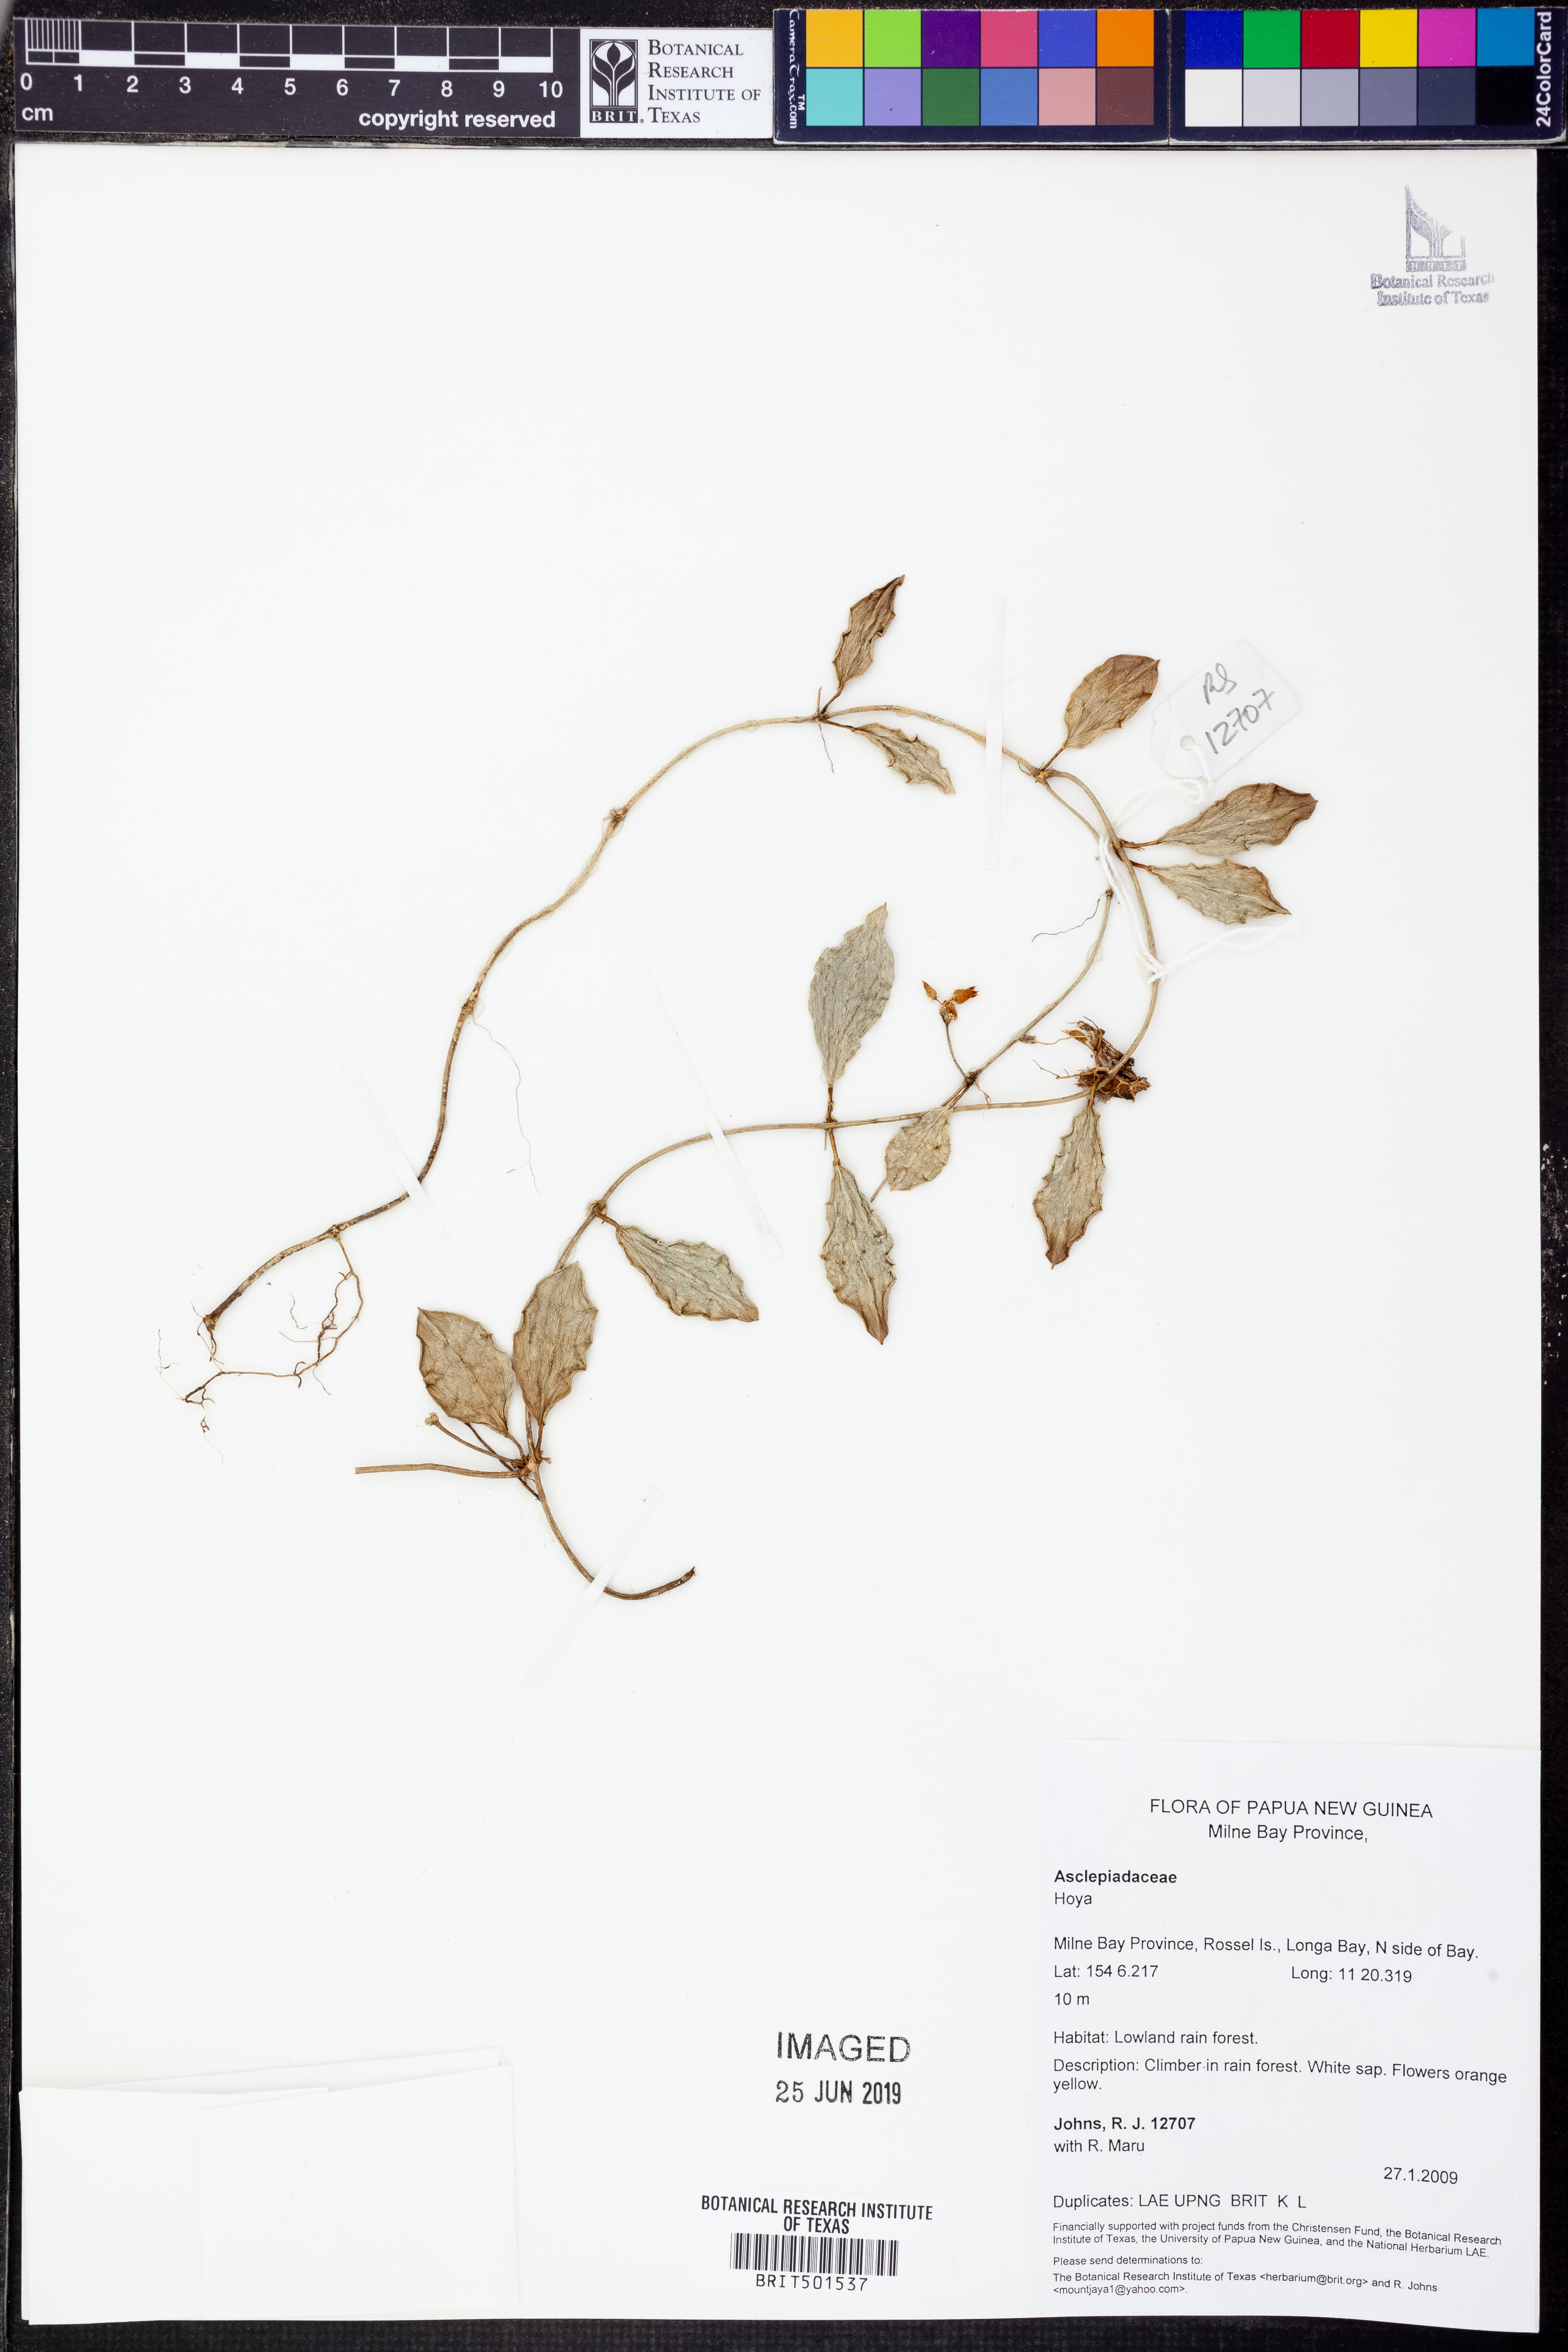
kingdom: Plantae
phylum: Tracheophyta
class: Magnoliopsida
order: Gentianales
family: Apocynaceae
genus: Hoya
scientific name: Hoya
